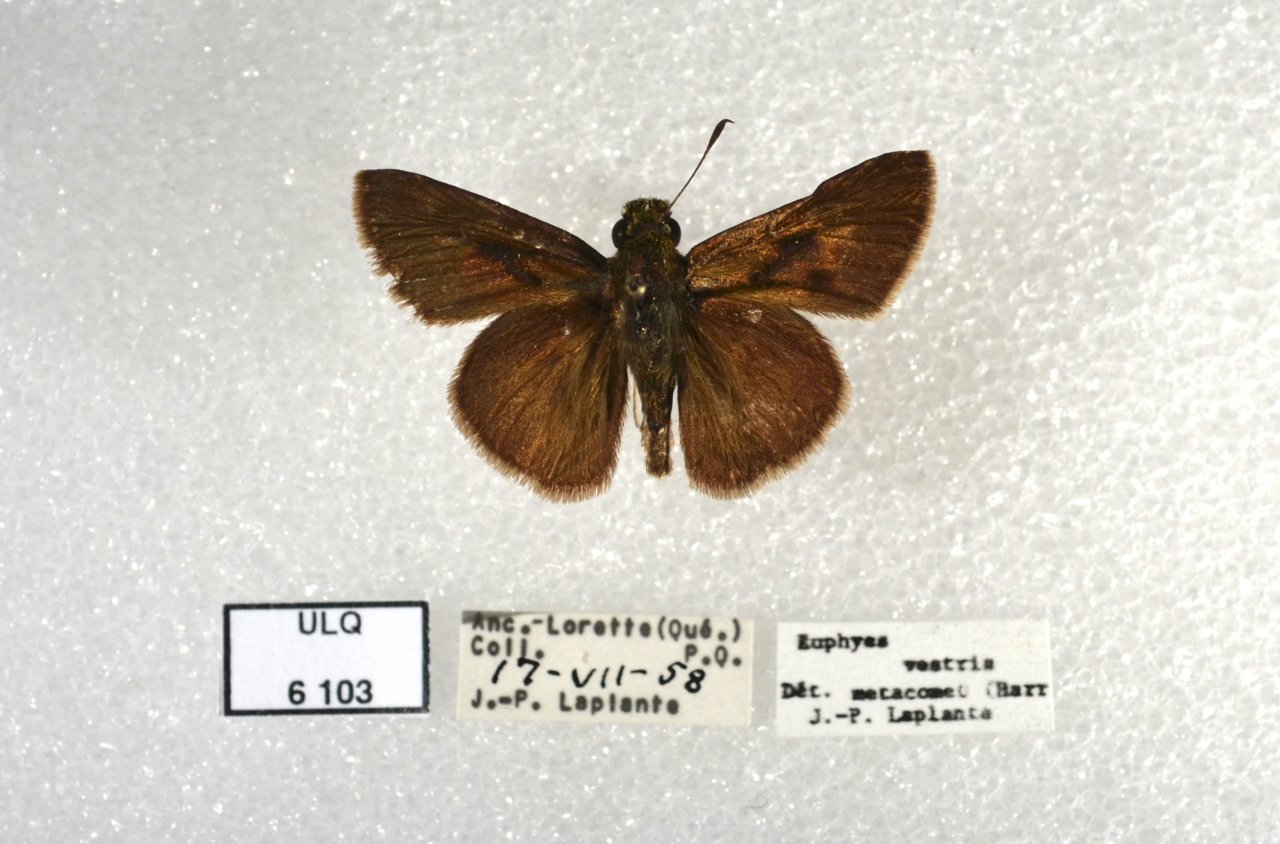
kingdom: Animalia
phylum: Arthropoda
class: Insecta
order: Lepidoptera
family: Hesperiidae
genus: Euphyes
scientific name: Euphyes vestris
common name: Dun Skipper
